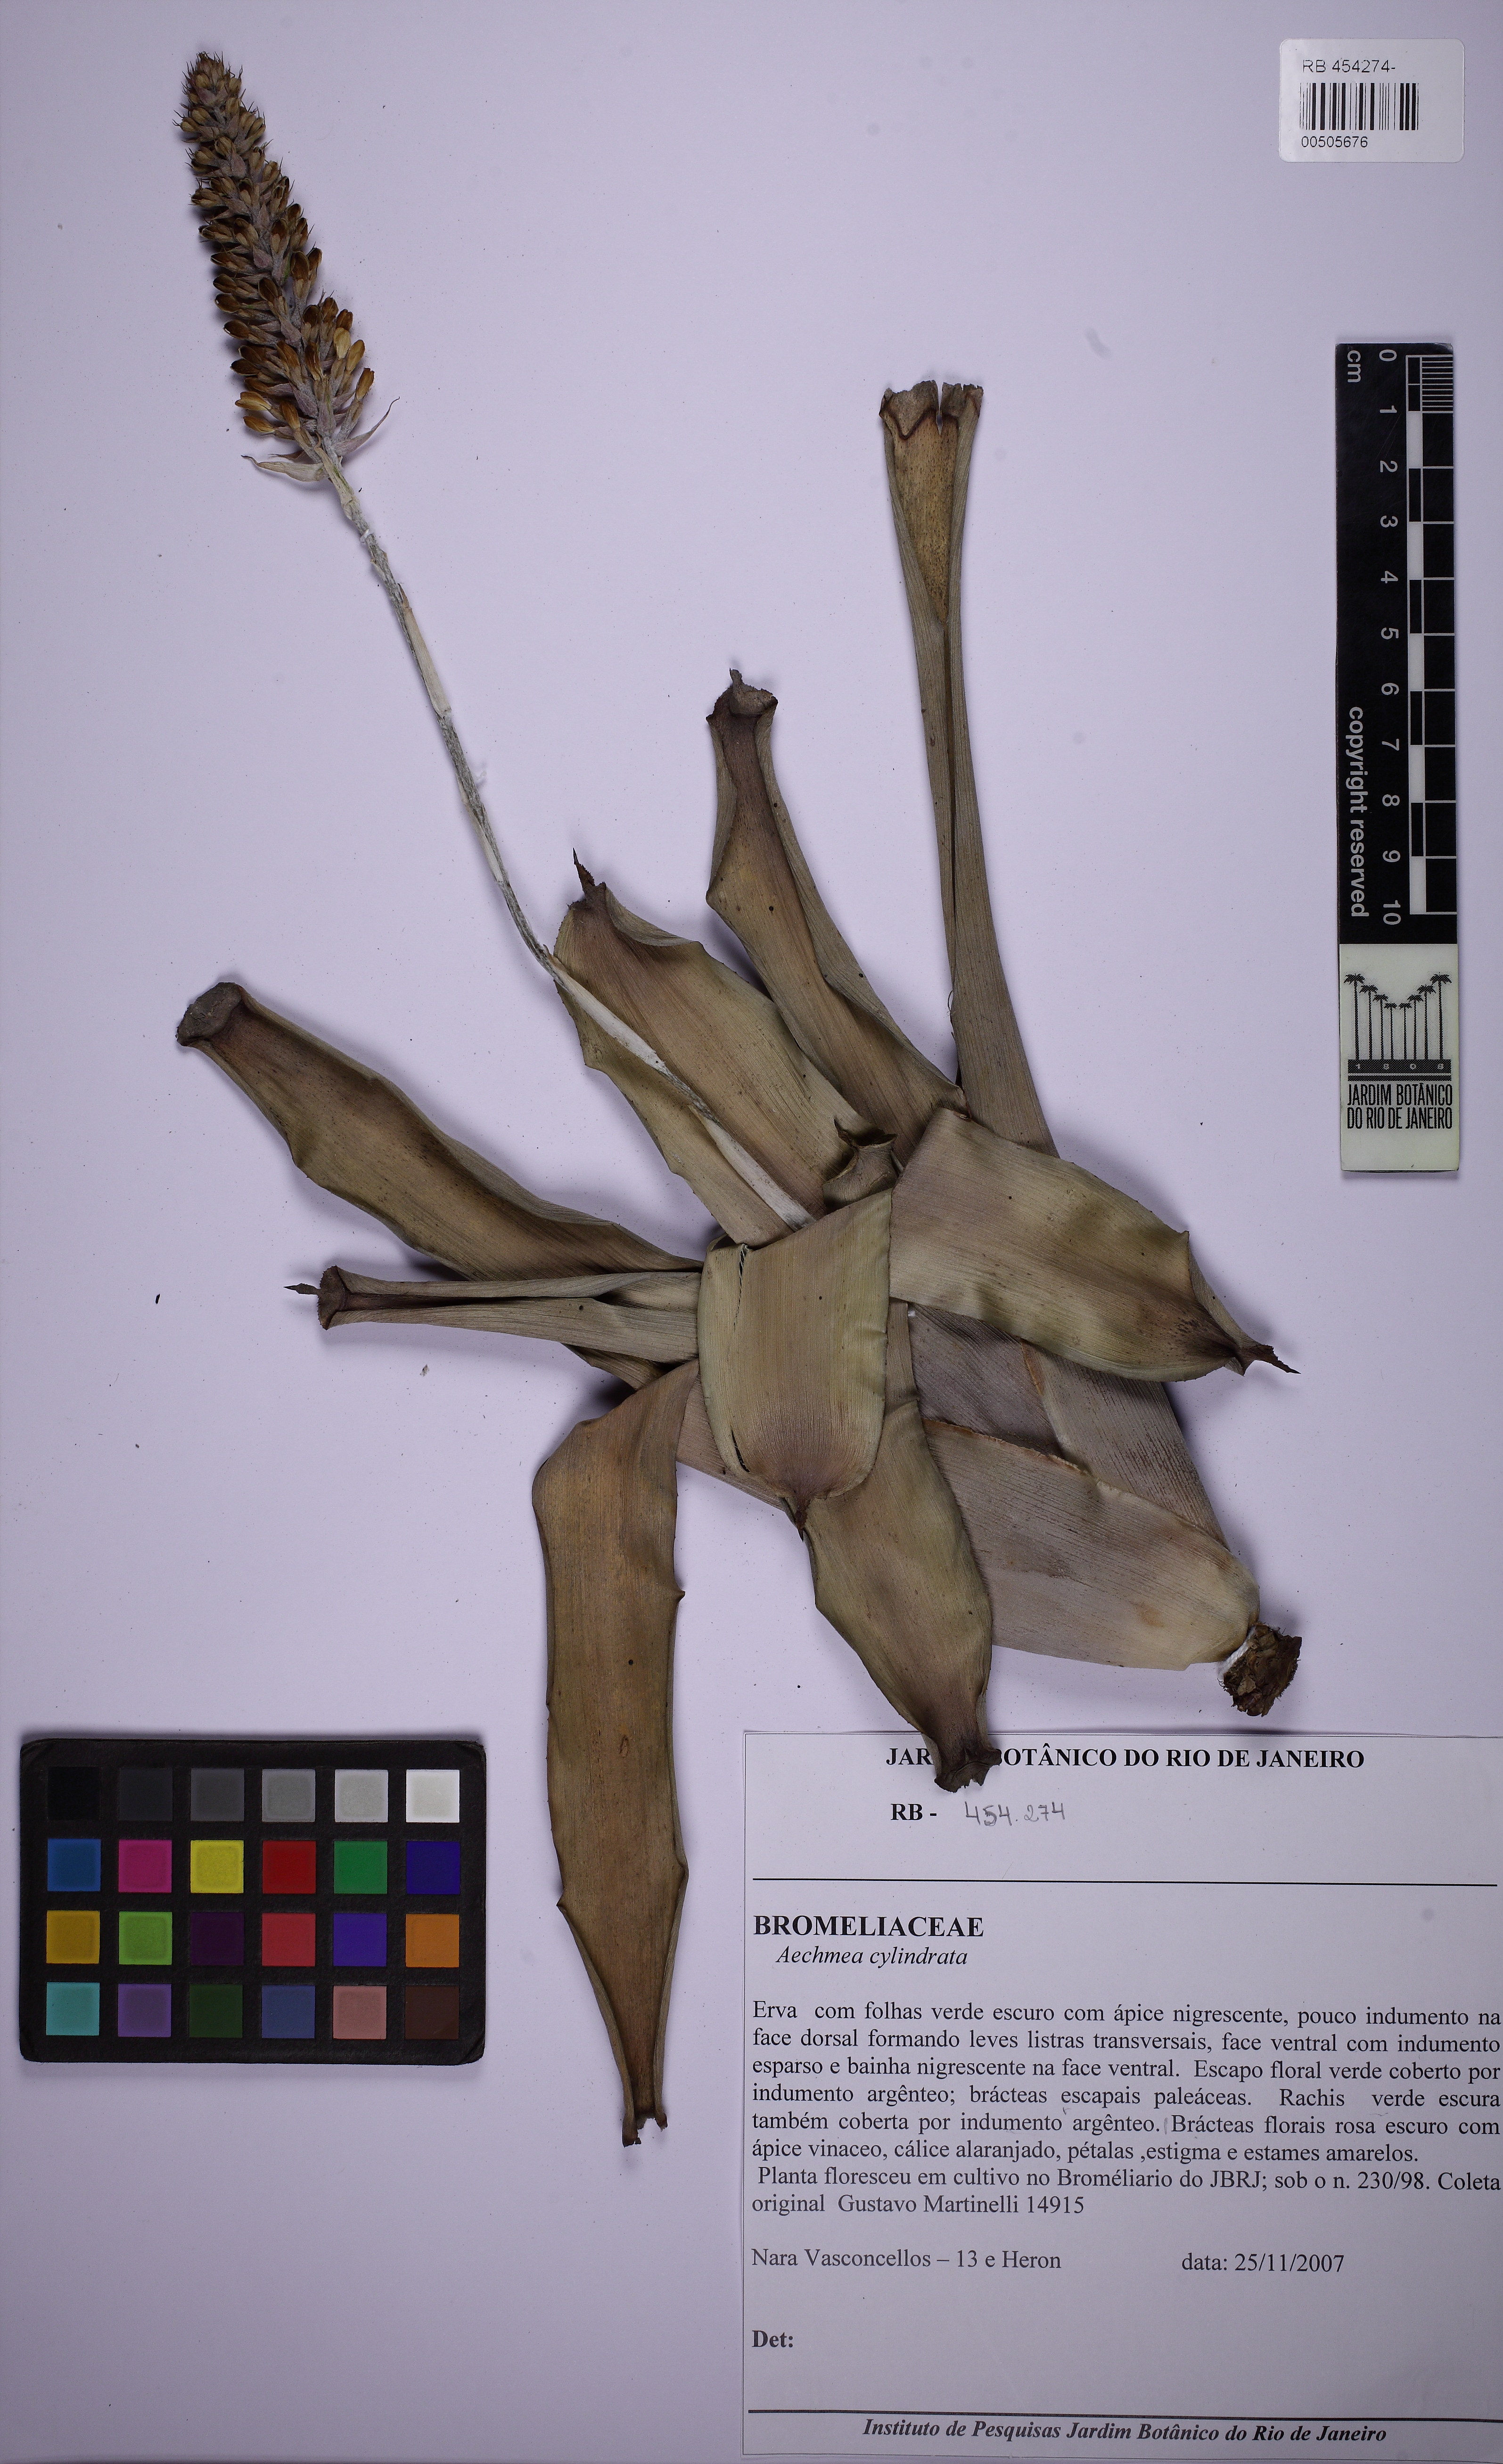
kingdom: Plantae
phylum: Tracheophyta
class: Liliopsida
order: Poales
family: Bromeliaceae
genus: Aechmea
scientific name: Aechmea cylindrata
